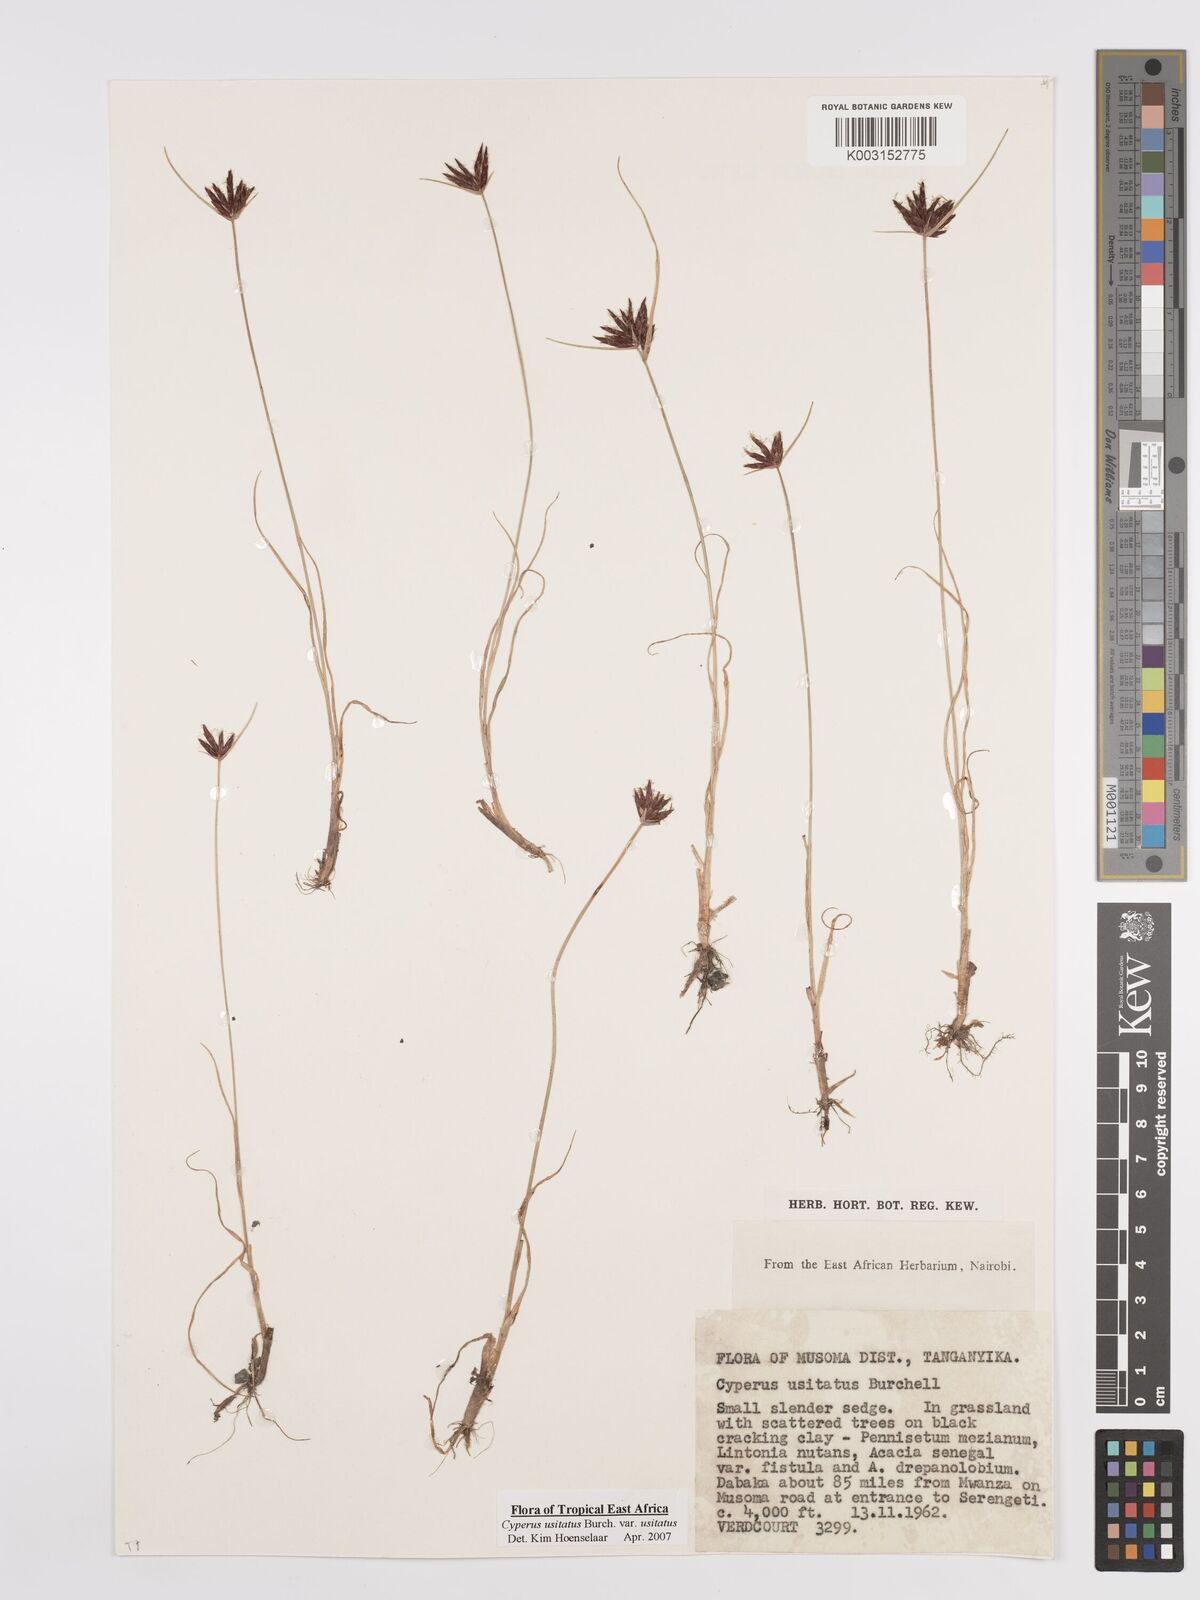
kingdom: Plantae
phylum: Tracheophyta
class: Liliopsida
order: Poales
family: Cyperaceae
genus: Cyperus
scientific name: Cyperus usitatus
